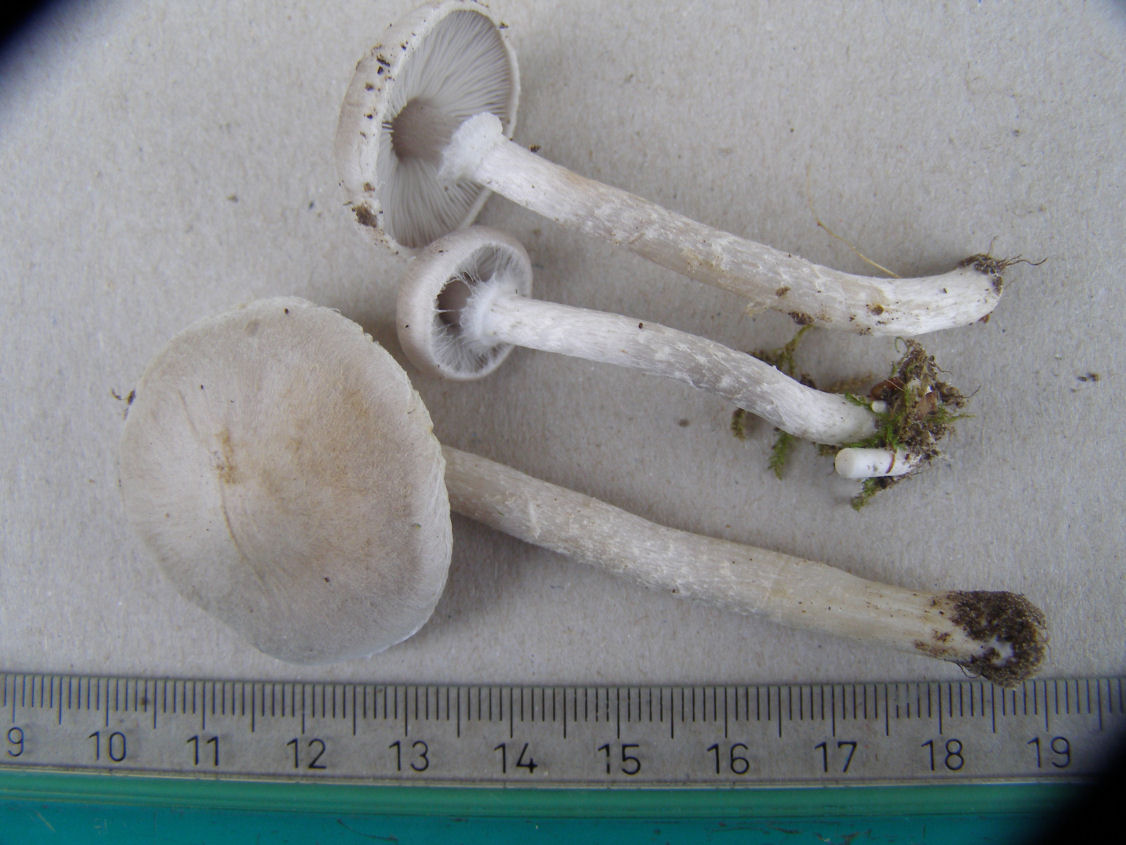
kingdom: Fungi
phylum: Basidiomycota
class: Agaricomycetes
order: Agaricales
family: Tricholomataceae
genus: Tricholoma
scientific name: Tricholoma cingulatum
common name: ring-ridderhat
